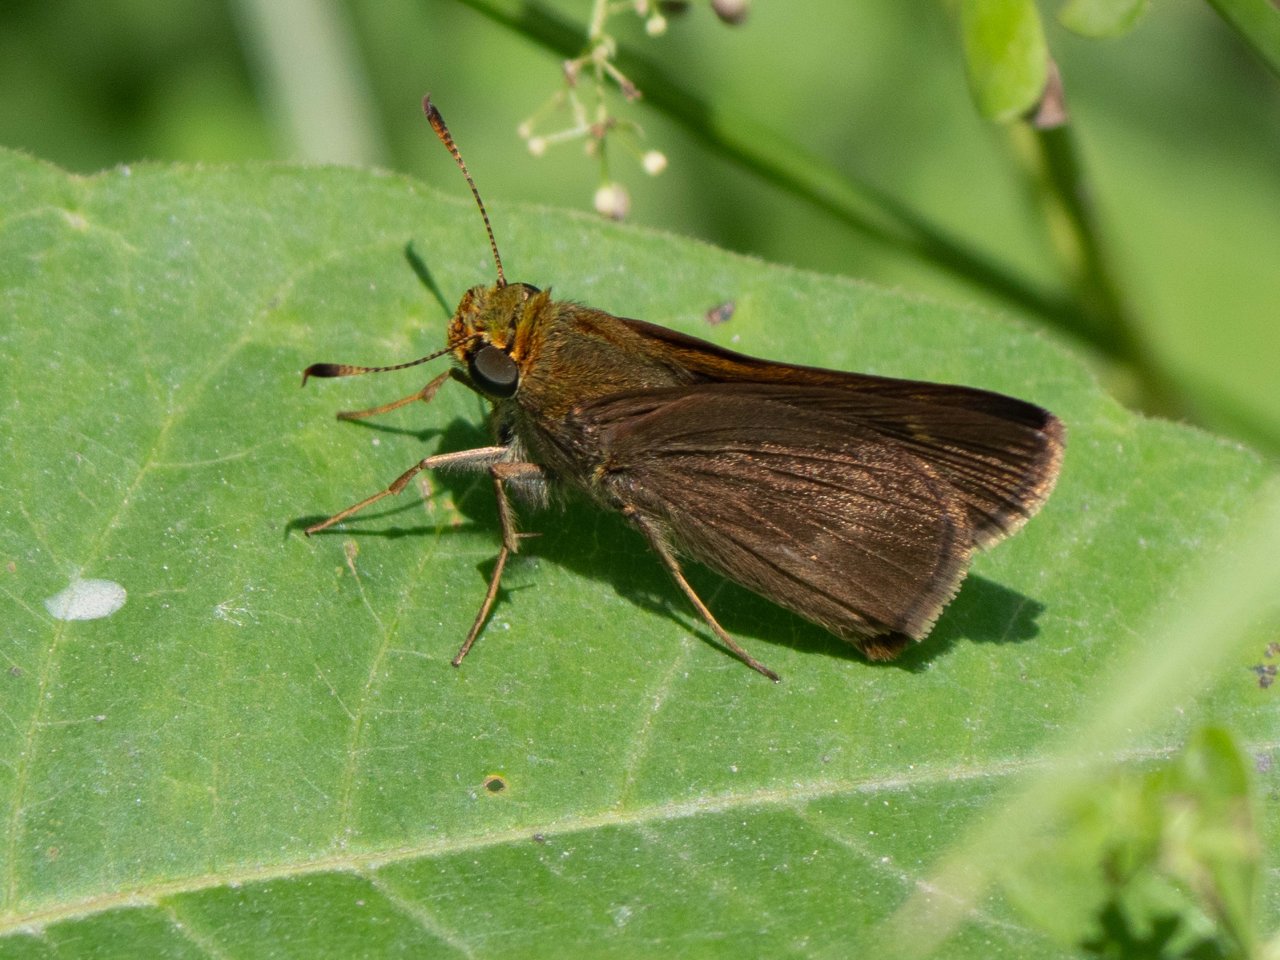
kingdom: Animalia
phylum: Arthropoda
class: Insecta
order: Lepidoptera
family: Hesperiidae
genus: Polites
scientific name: Polites
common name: Crossline Skipper
